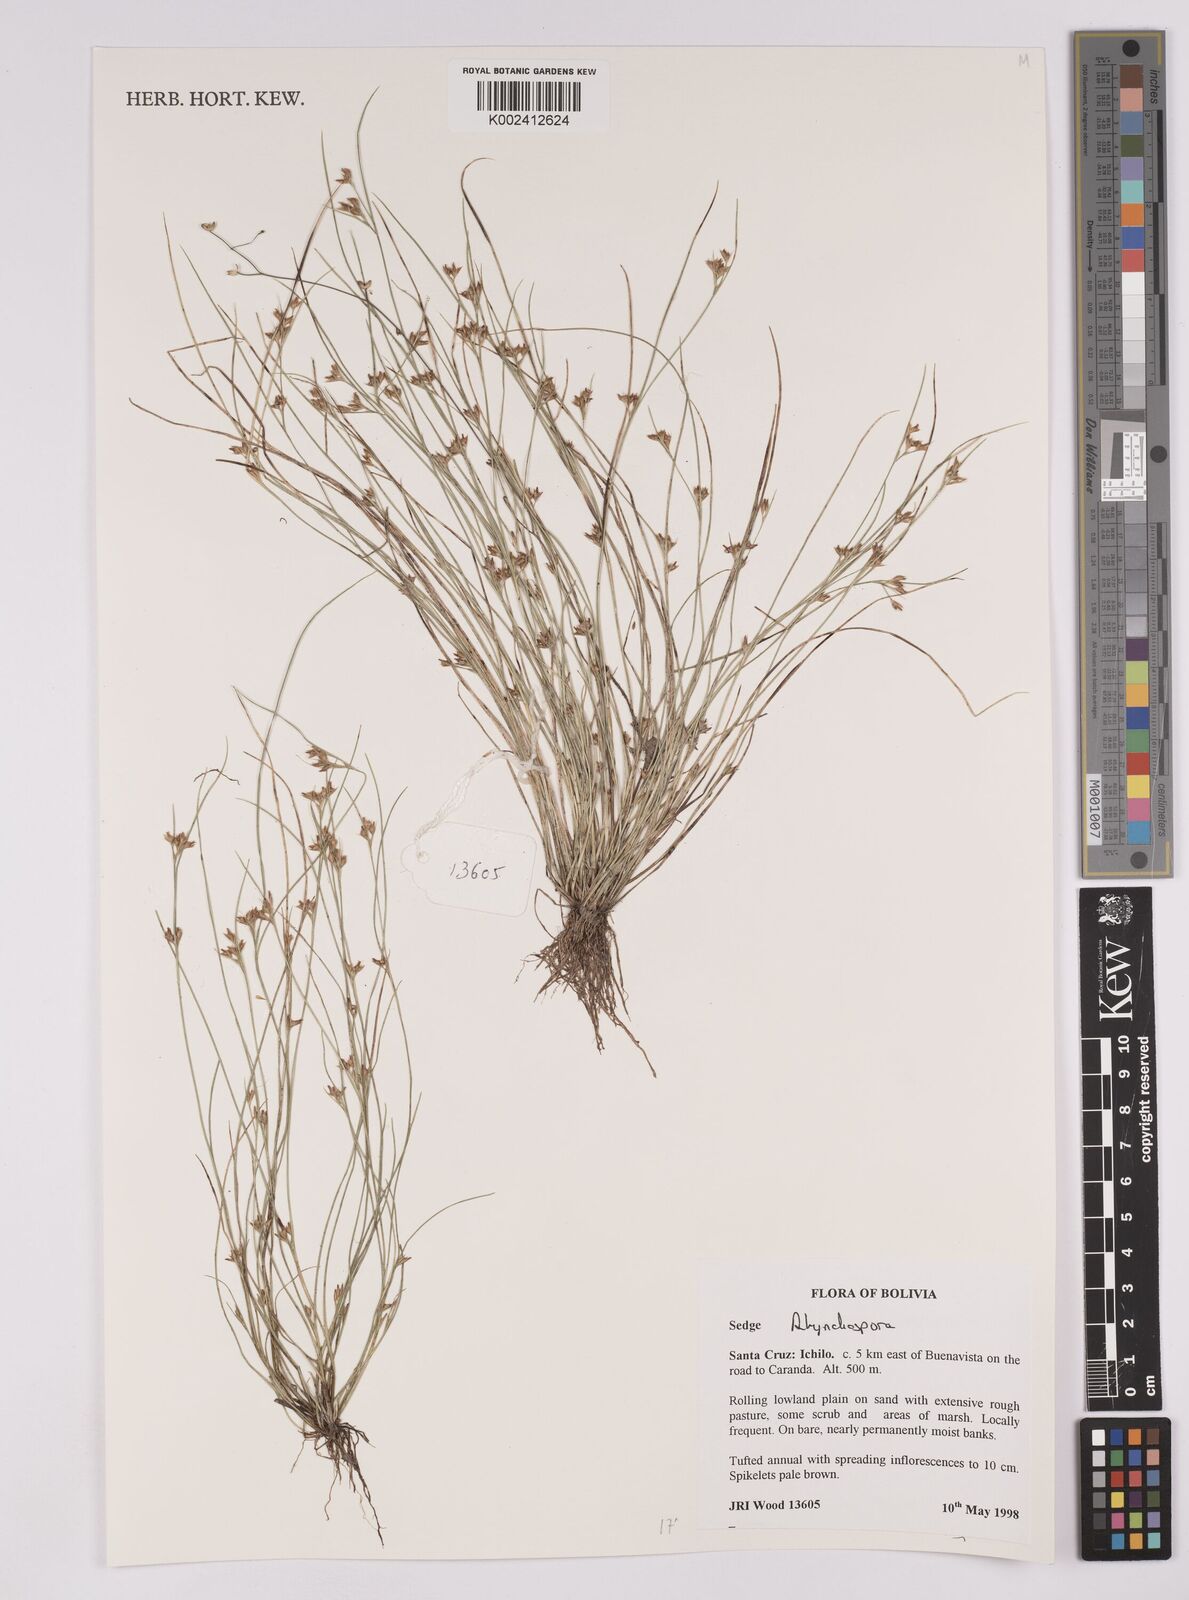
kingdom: Plantae
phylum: Tracheophyta
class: Liliopsida
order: Poales
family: Cyperaceae
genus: Rhynchospora
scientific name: Rhynchospora
